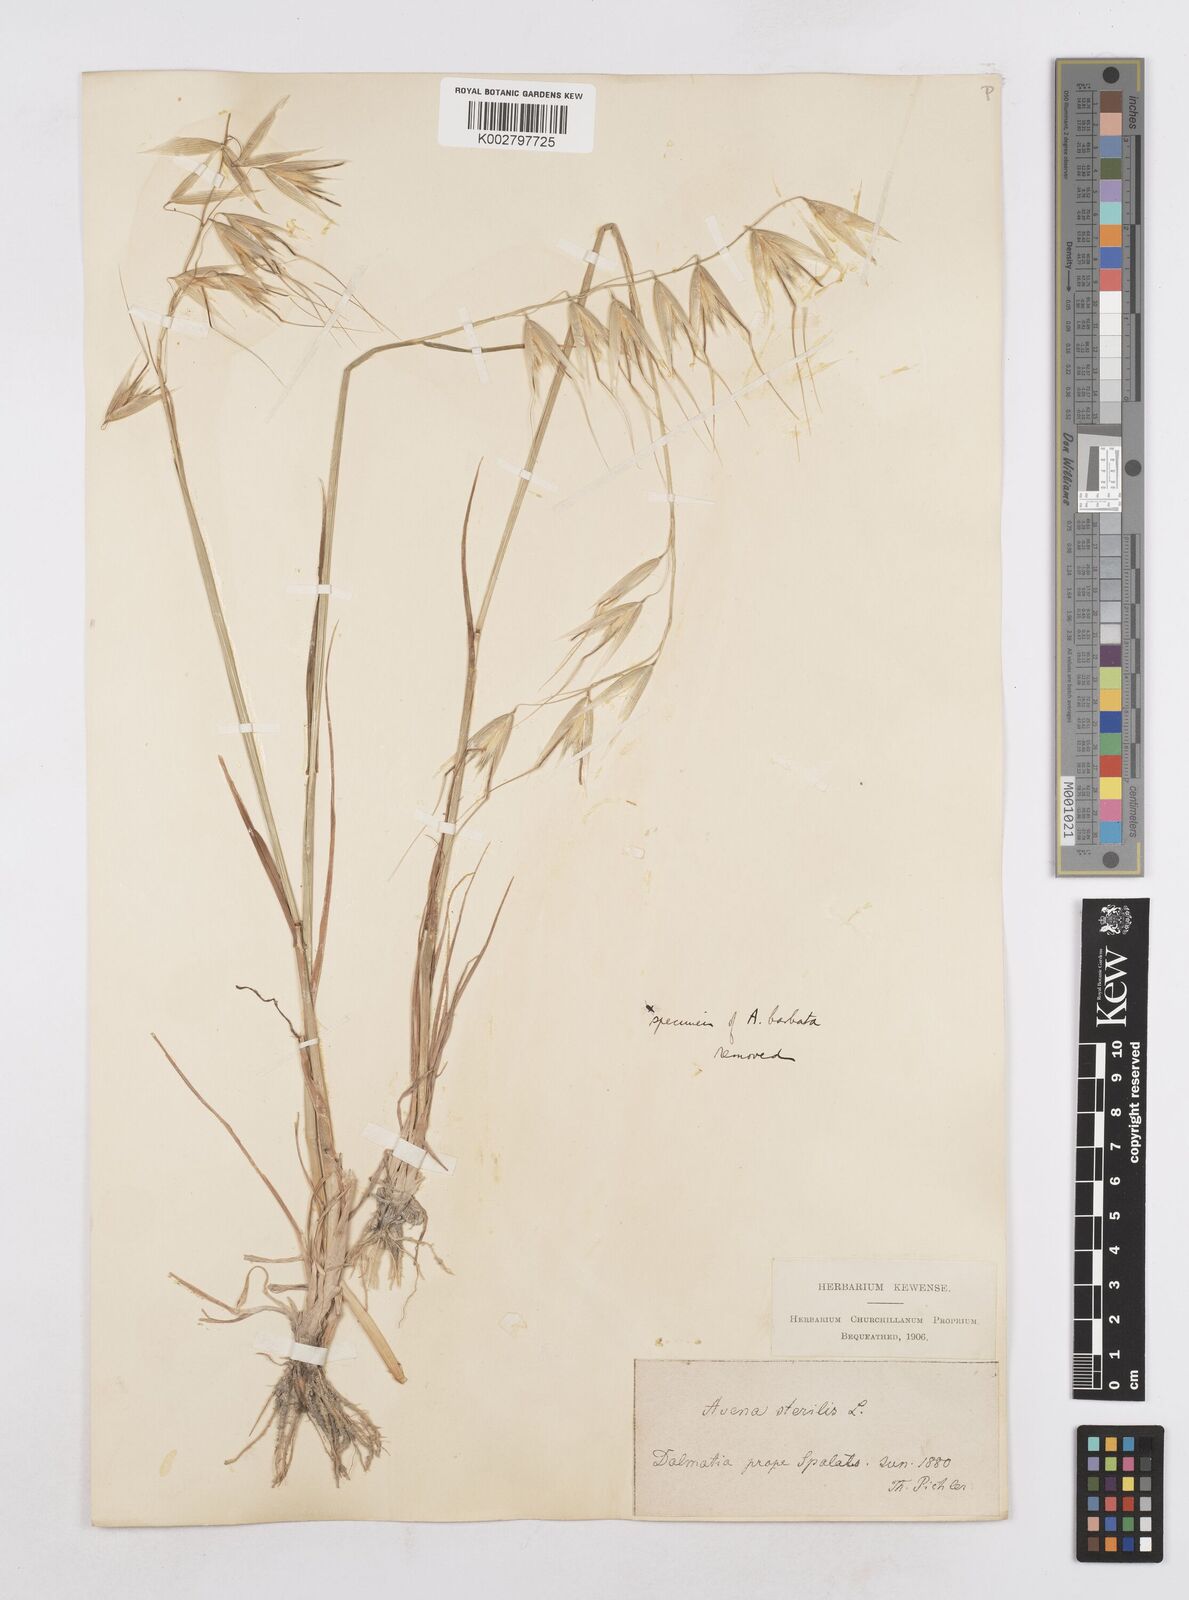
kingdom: Plantae
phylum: Tracheophyta
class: Liliopsida
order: Poales
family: Poaceae
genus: Avena
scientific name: Avena sterilis
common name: Animated oat
